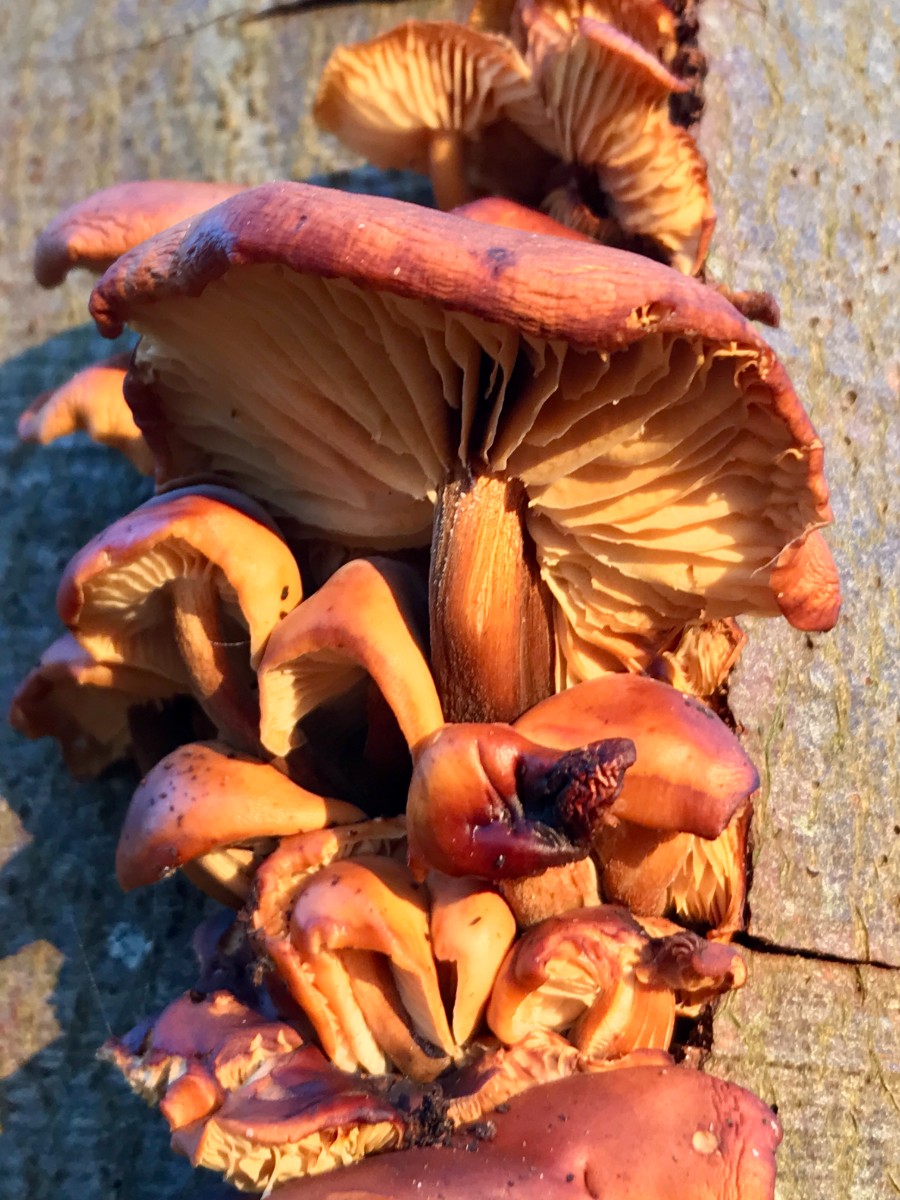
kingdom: Fungi
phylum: Basidiomycota
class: Agaricomycetes
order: Agaricales
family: Physalacriaceae
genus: Flammulina
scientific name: Flammulina velutipes
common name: gul fløjlsfod
